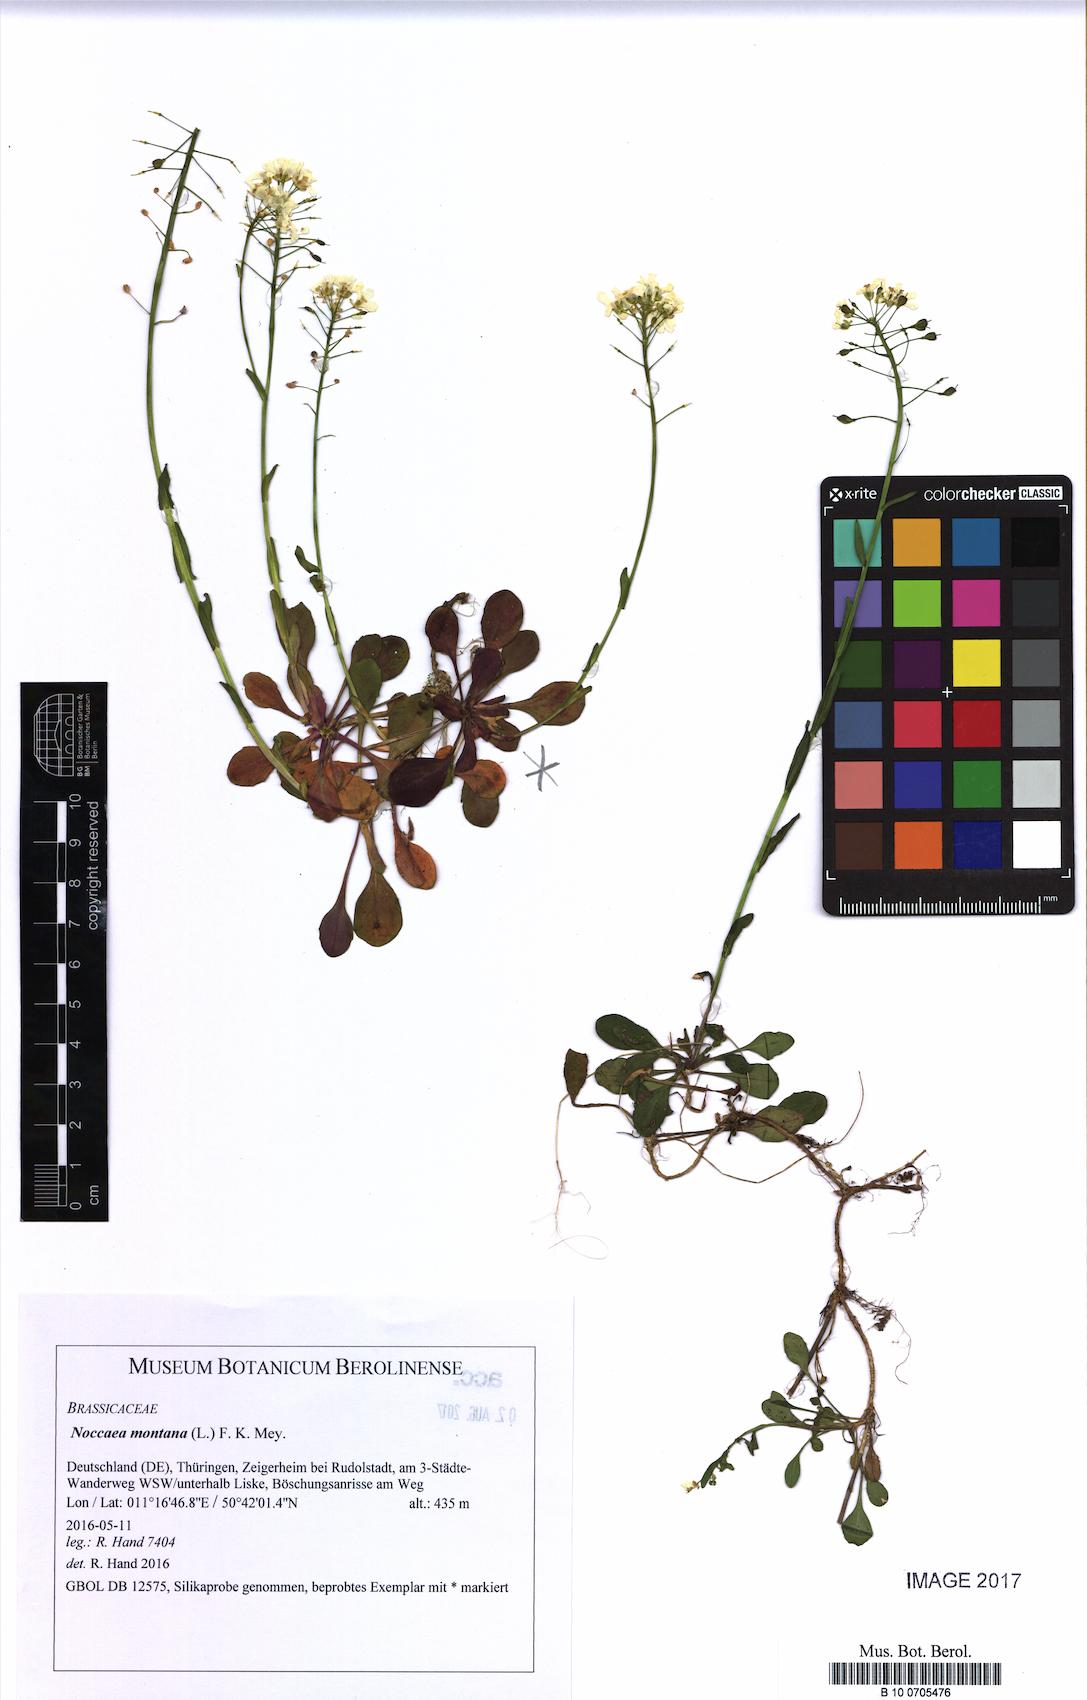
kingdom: Plantae
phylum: Tracheophyta
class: Magnoliopsida
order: Brassicales
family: Brassicaceae
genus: Noccaea
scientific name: Noccaea montana
